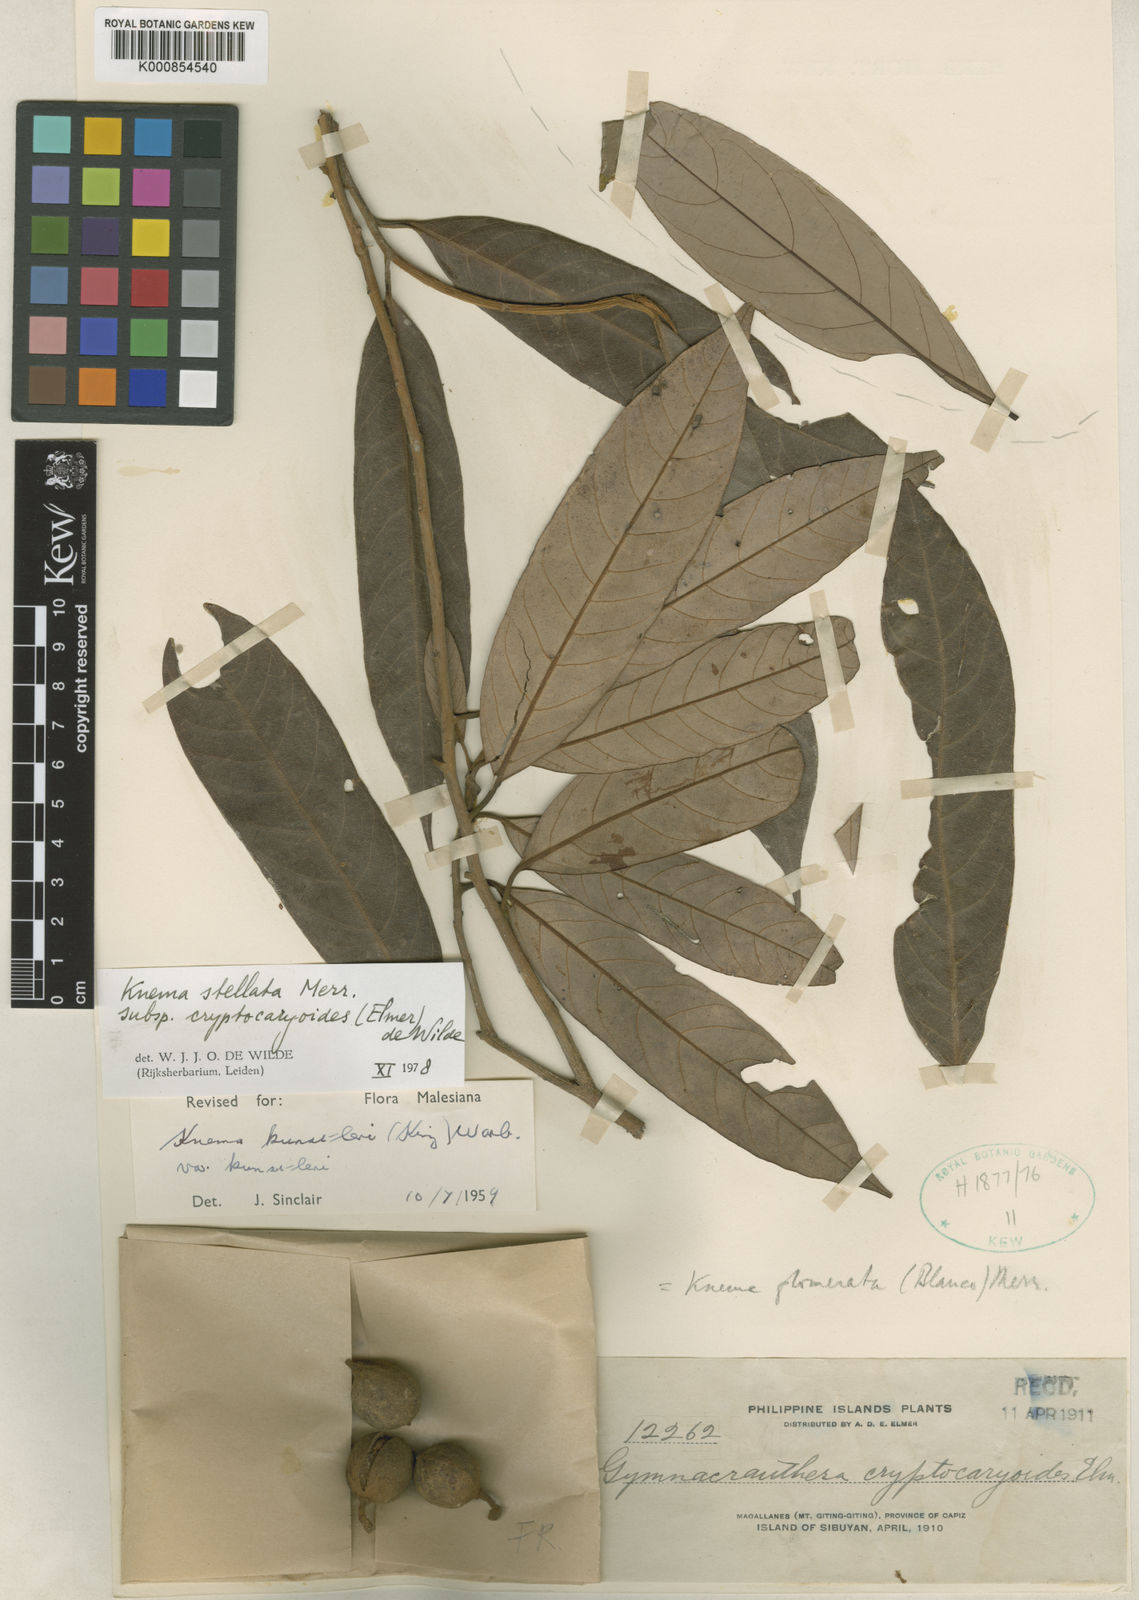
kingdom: Plantae
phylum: Tracheophyta
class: Magnoliopsida
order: Magnoliales
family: Myristicaceae
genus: Knema
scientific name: Knema stellata
